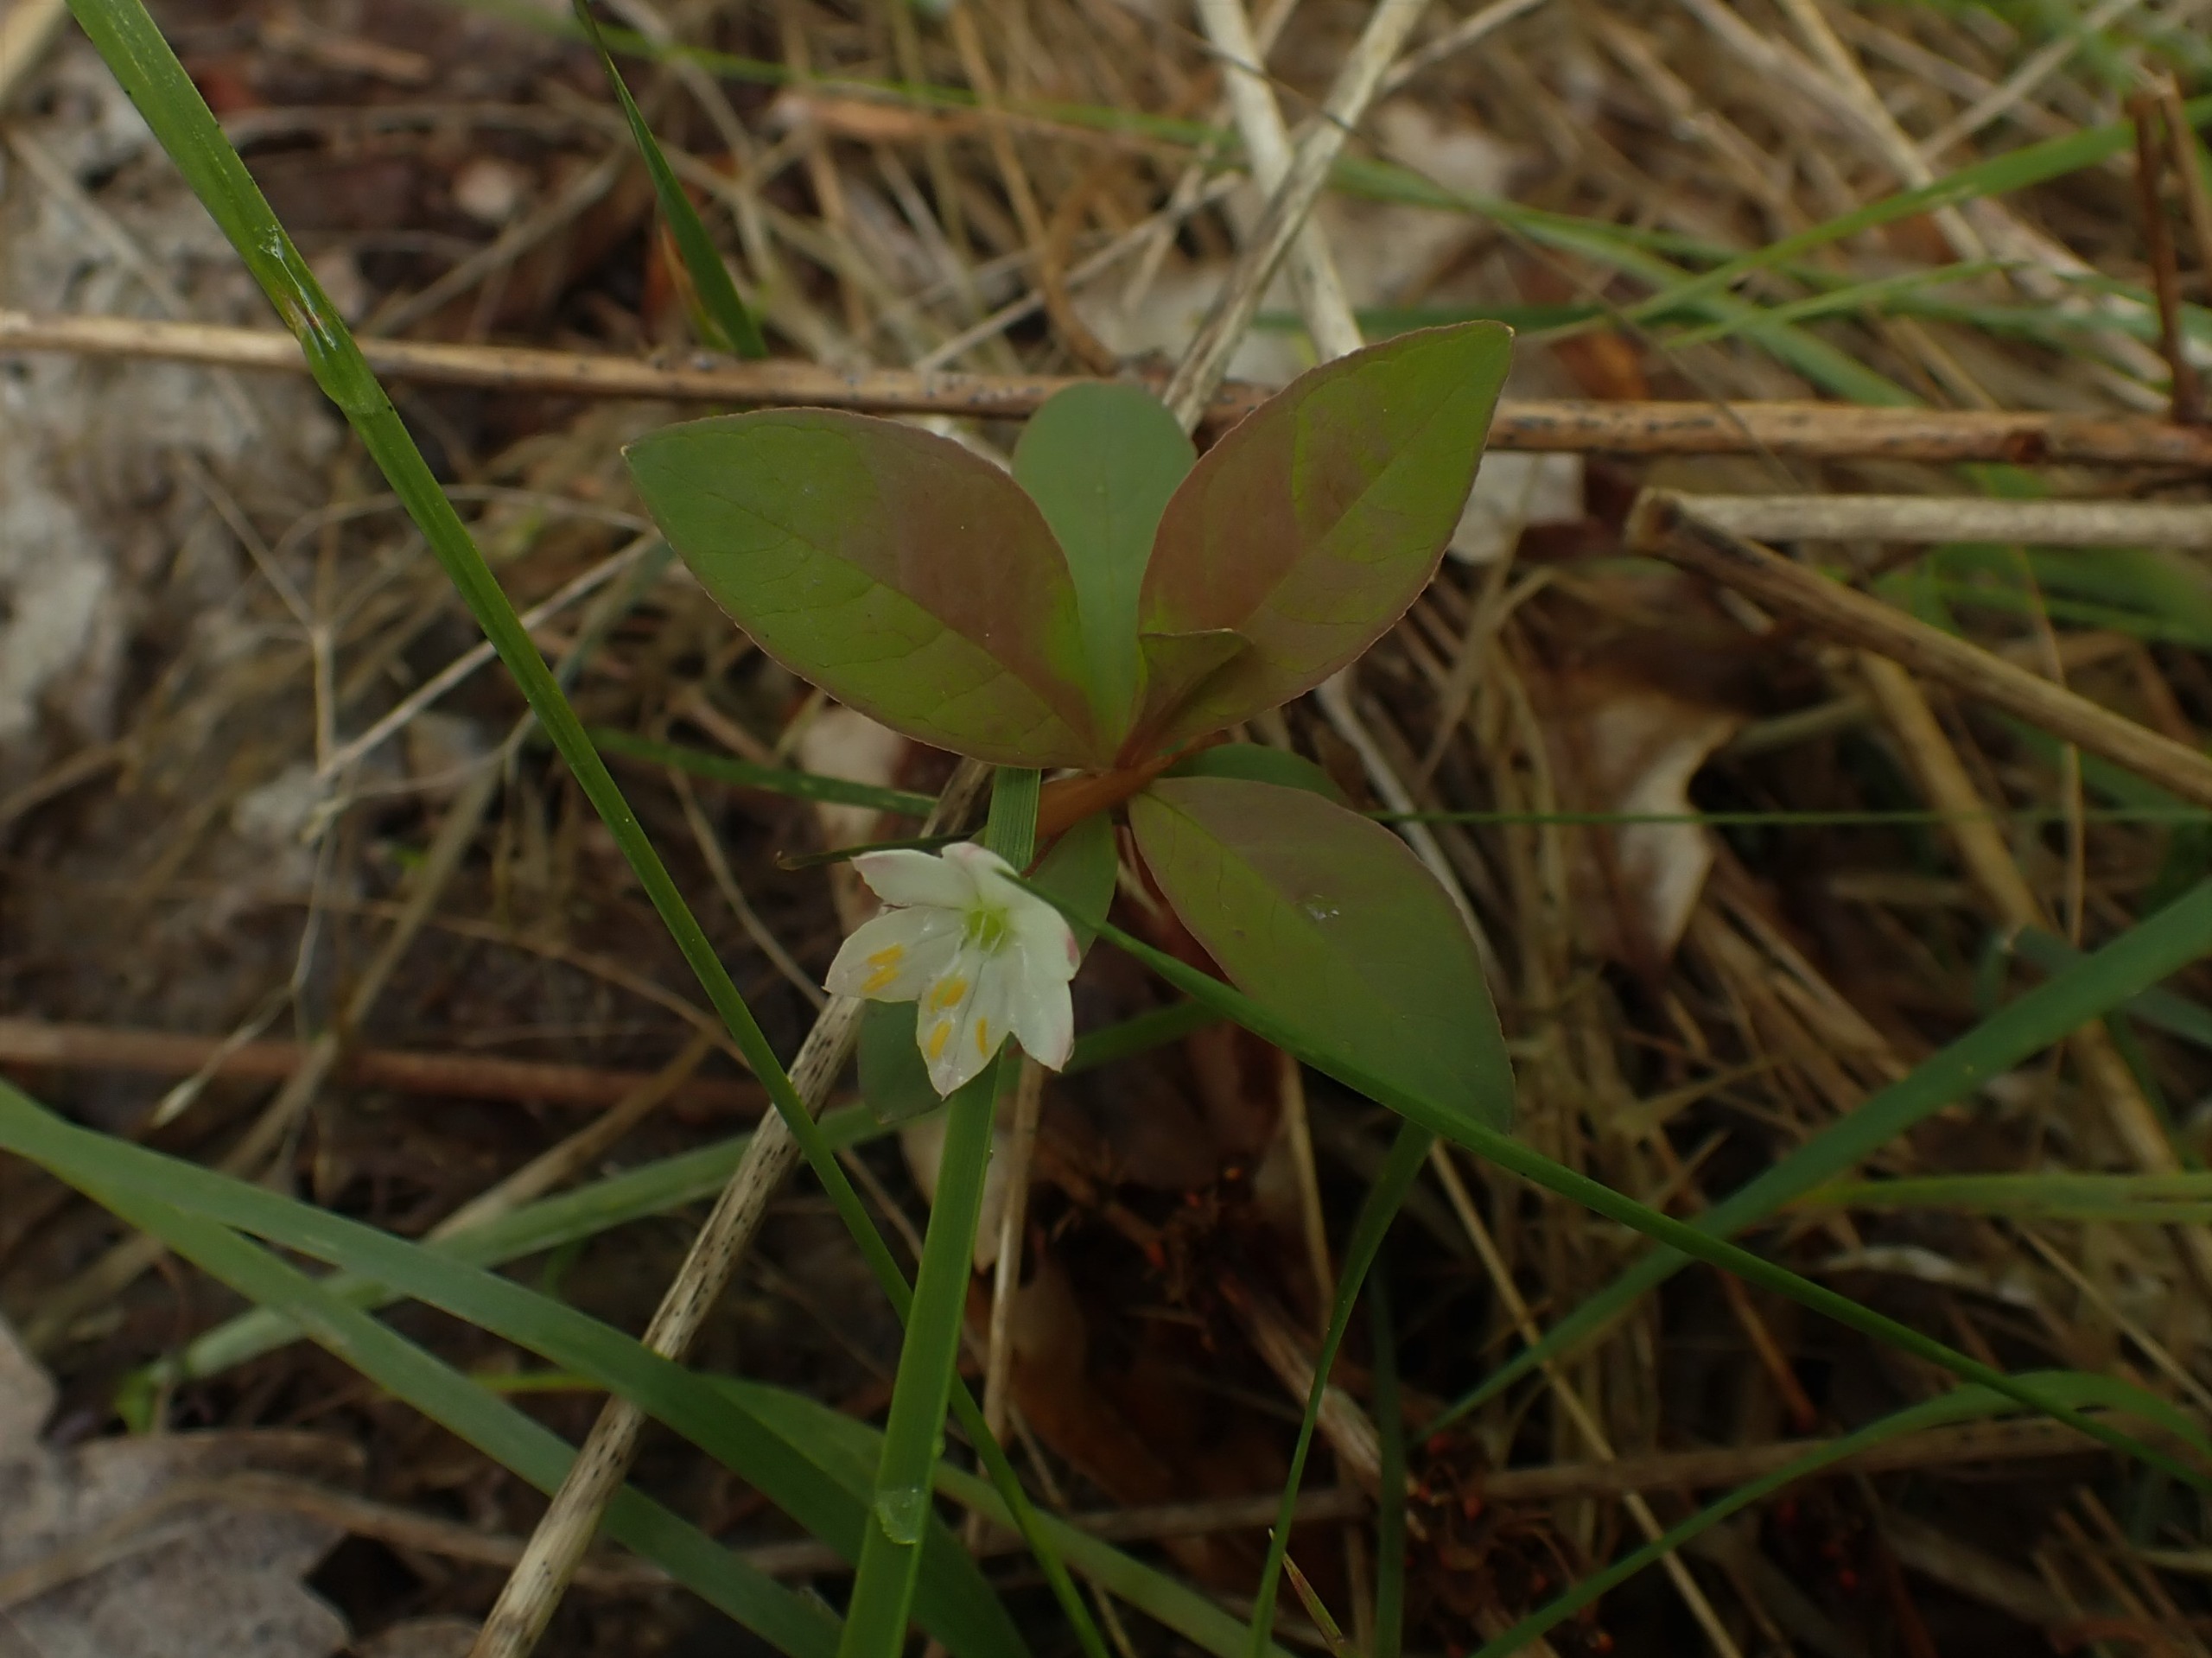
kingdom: Plantae
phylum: Tracheophyta
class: Magnoliopsida
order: Ericales
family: Primulaceae
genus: Lysimachia
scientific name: Lysimachia europaea
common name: Skovstjerne
